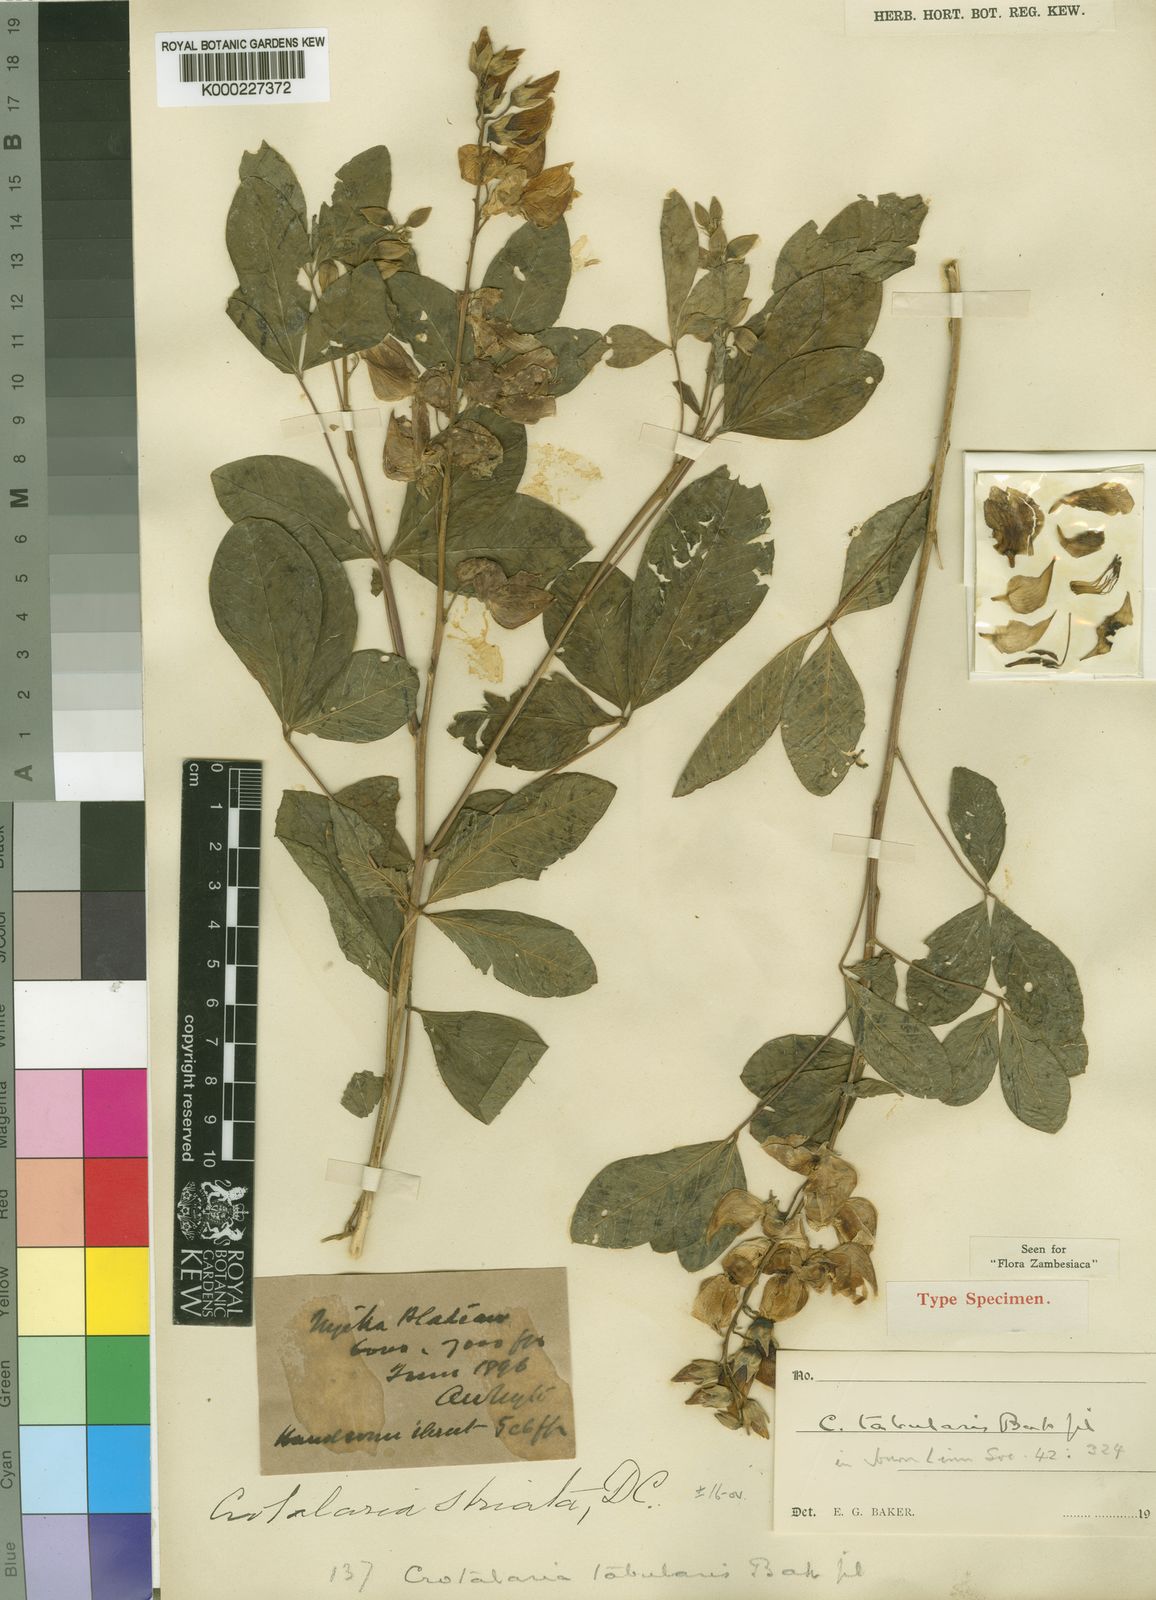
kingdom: Plantae
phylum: Tracheophyta
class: Magnoliopsida
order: Fabales
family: Fabaceae
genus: Crotalaria
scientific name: Crotalaria tabularis
